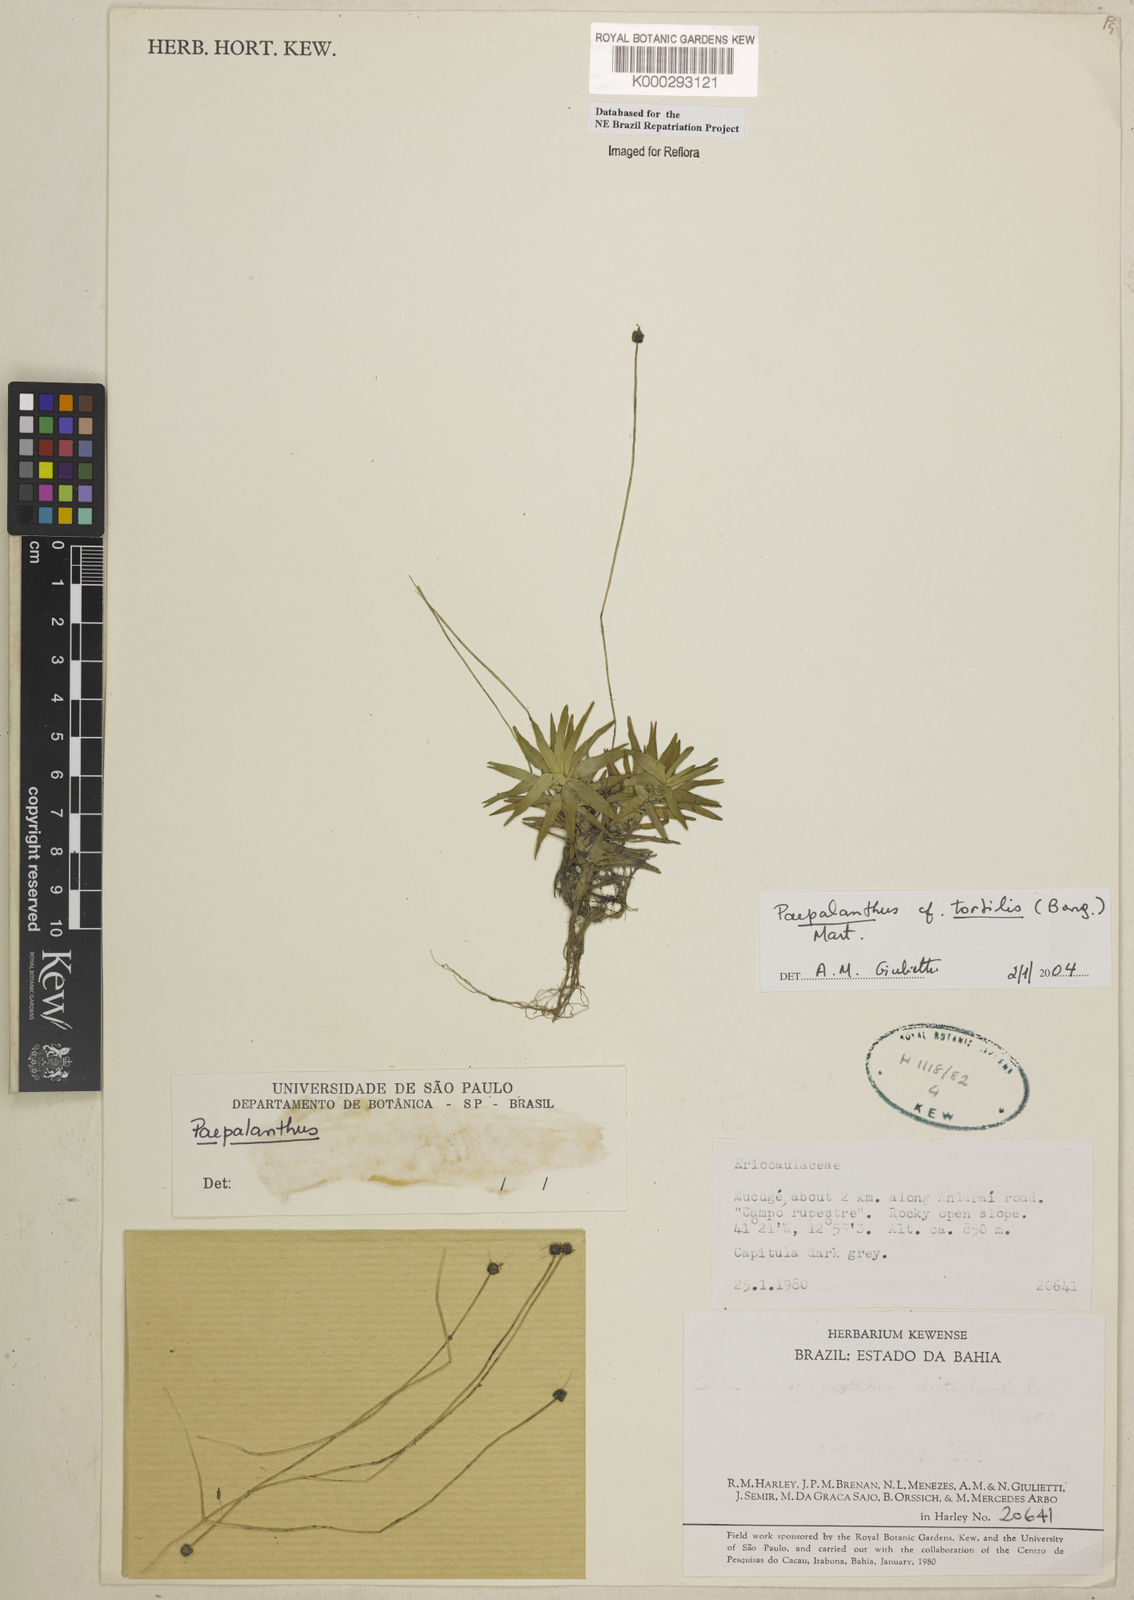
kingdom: Plantae
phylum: Tracheophyta
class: Liliopsida
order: Poales
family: Eriocaulaceae
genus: Paepalanthus
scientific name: Paepalanthus
